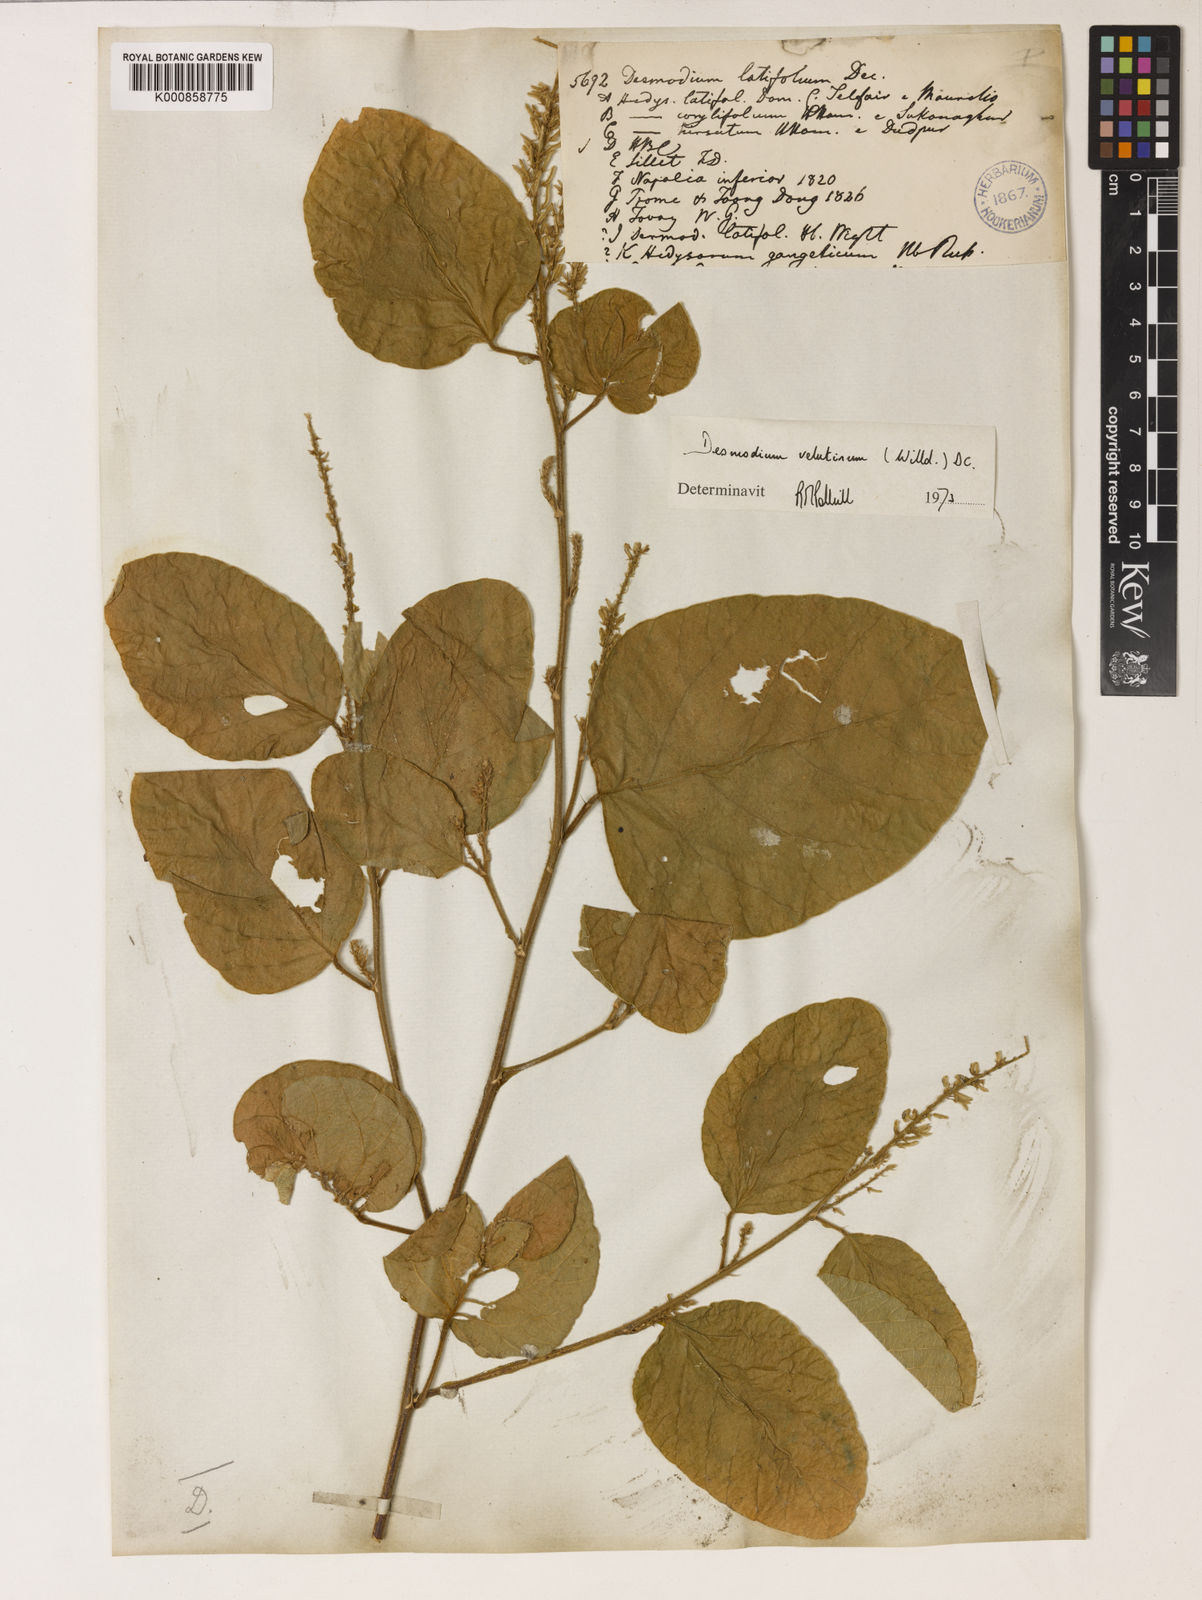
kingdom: Plantae
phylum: Tracheophyta
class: Magnoliopsida
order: Fabales
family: Fabaceae
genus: Polhillides
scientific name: Polhillides velutina
